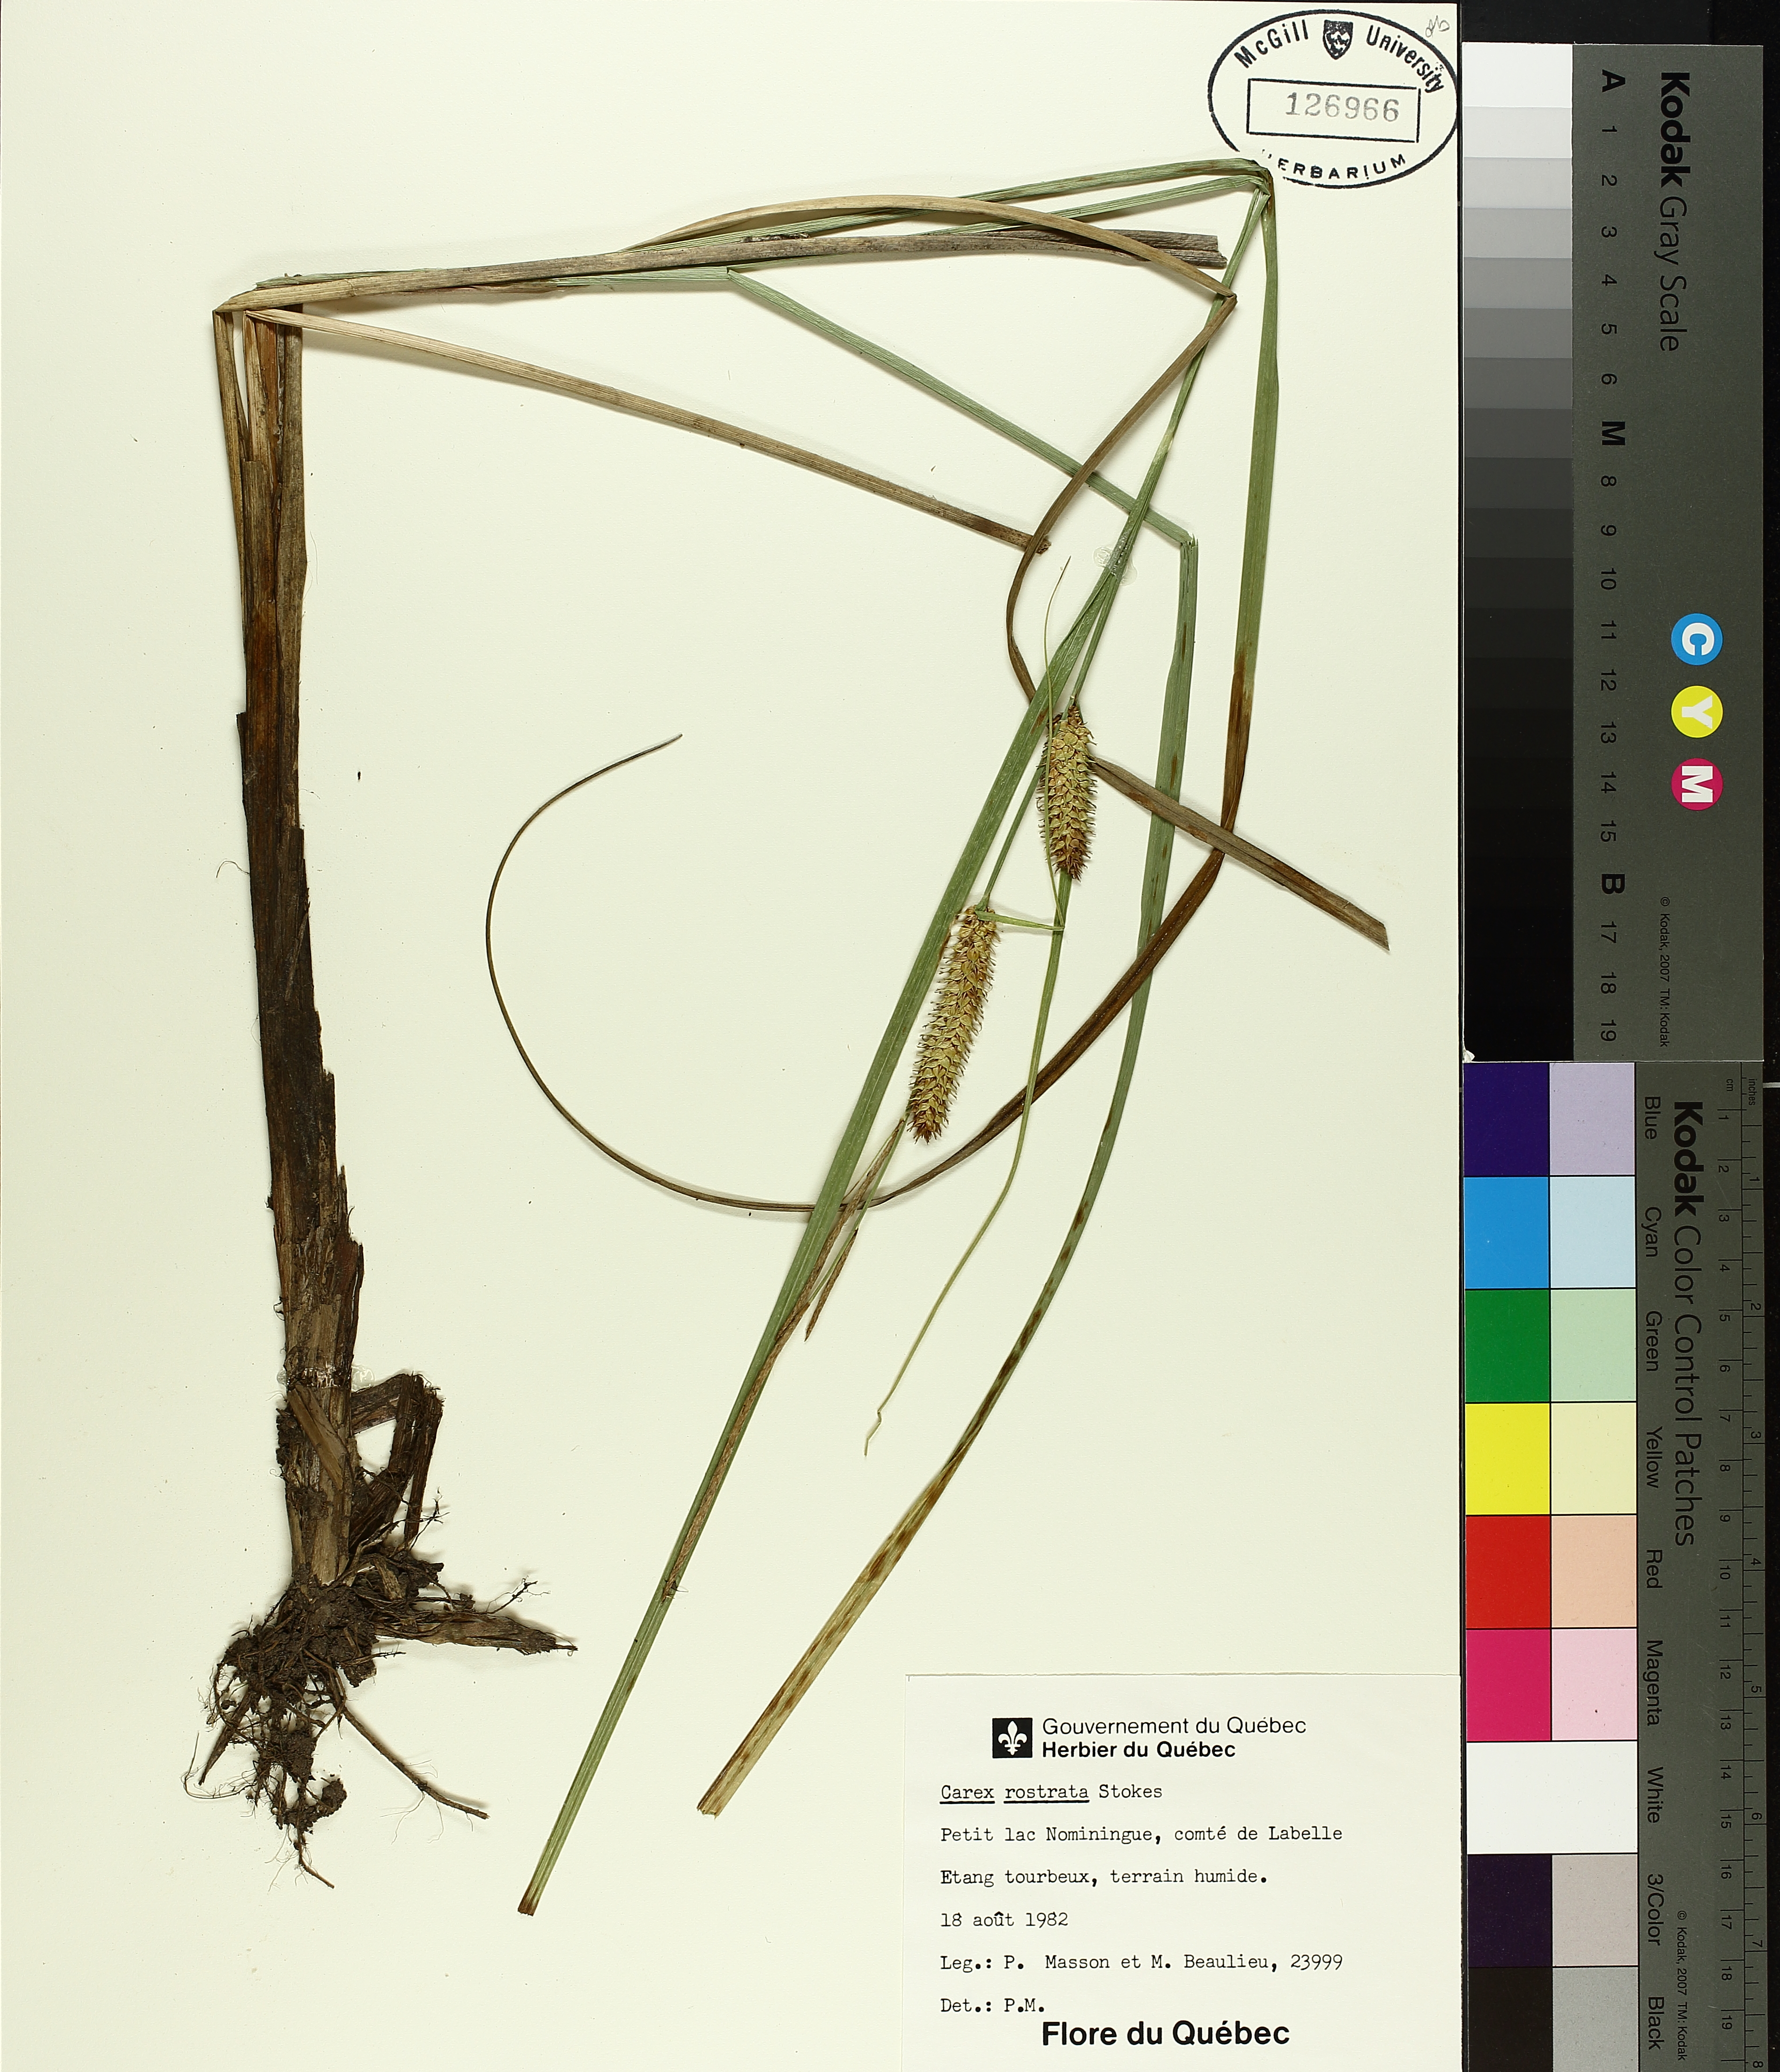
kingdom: Plantae
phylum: Tracheophyta
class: Liliopsida
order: Poales
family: Cyperaceae
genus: Carex
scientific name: Carex rostrata
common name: Bottle sedge
